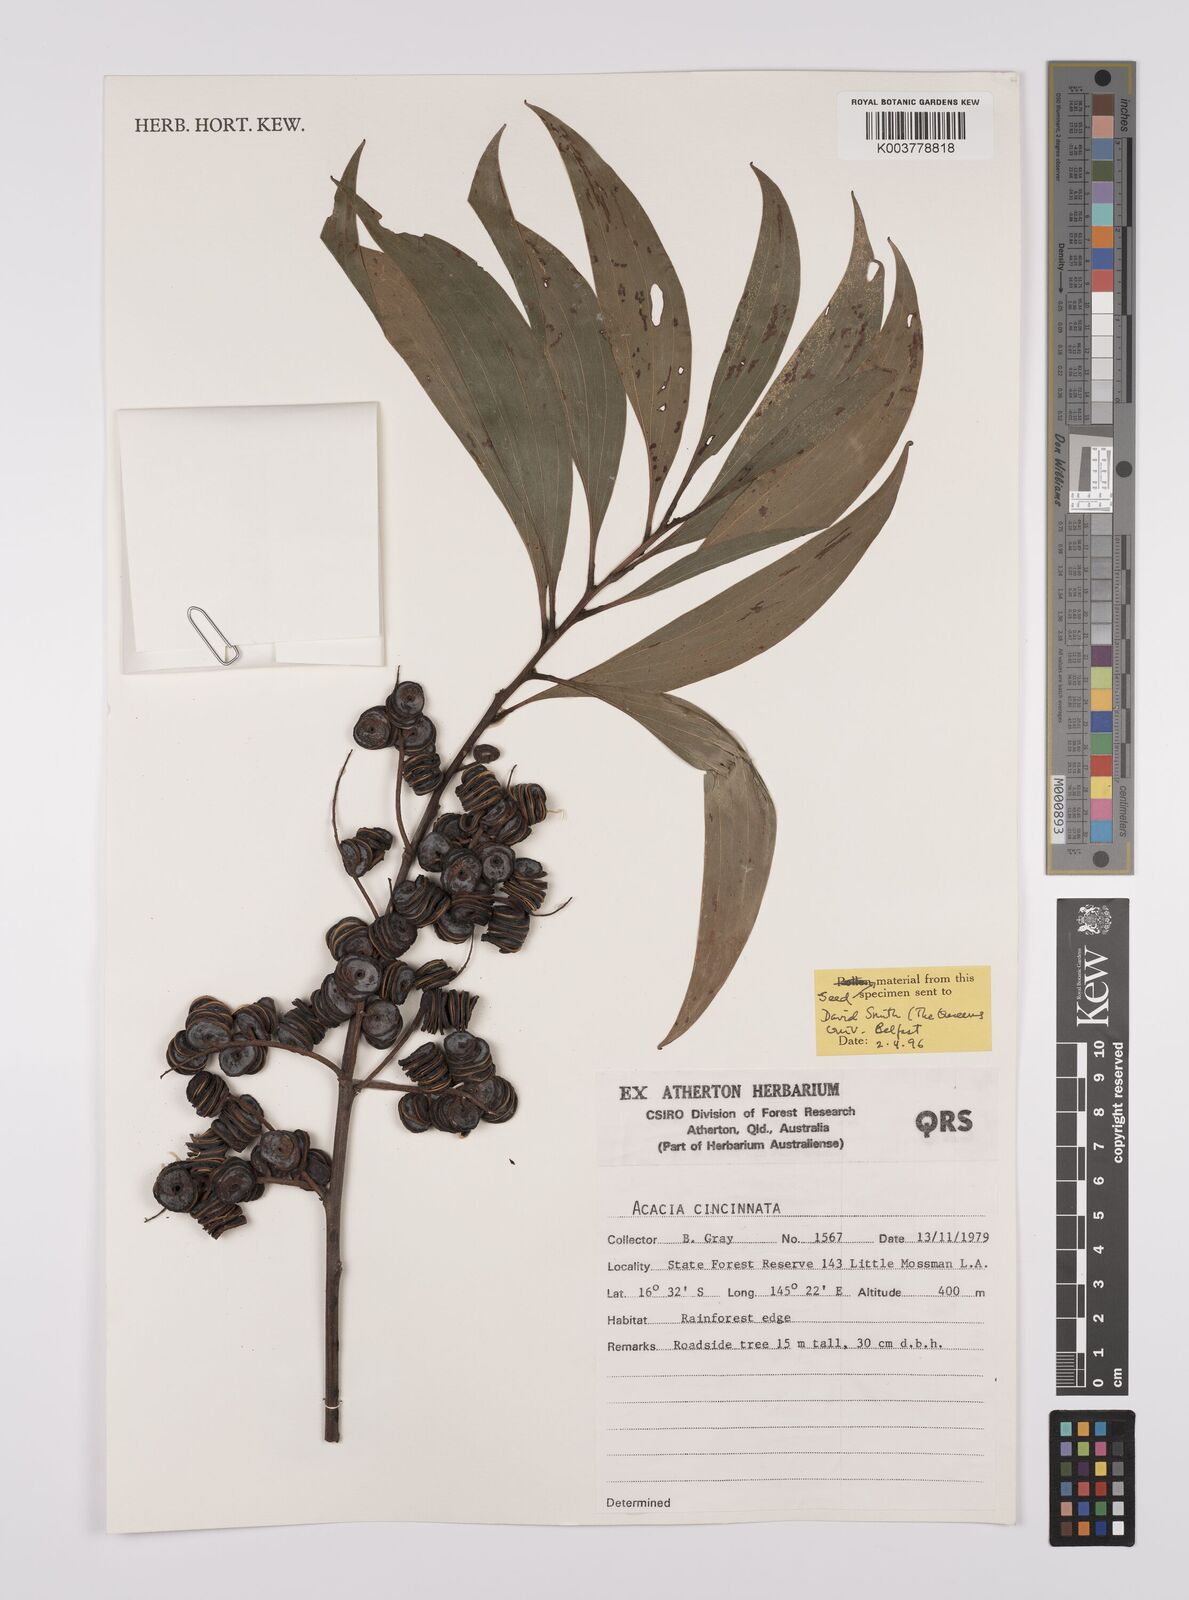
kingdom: Plantae
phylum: Tracheophyta
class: Magnoliopsida
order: Fabales
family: Fabaceae
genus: Acacia
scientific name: Acacia cincinnata
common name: Daintree wattle
